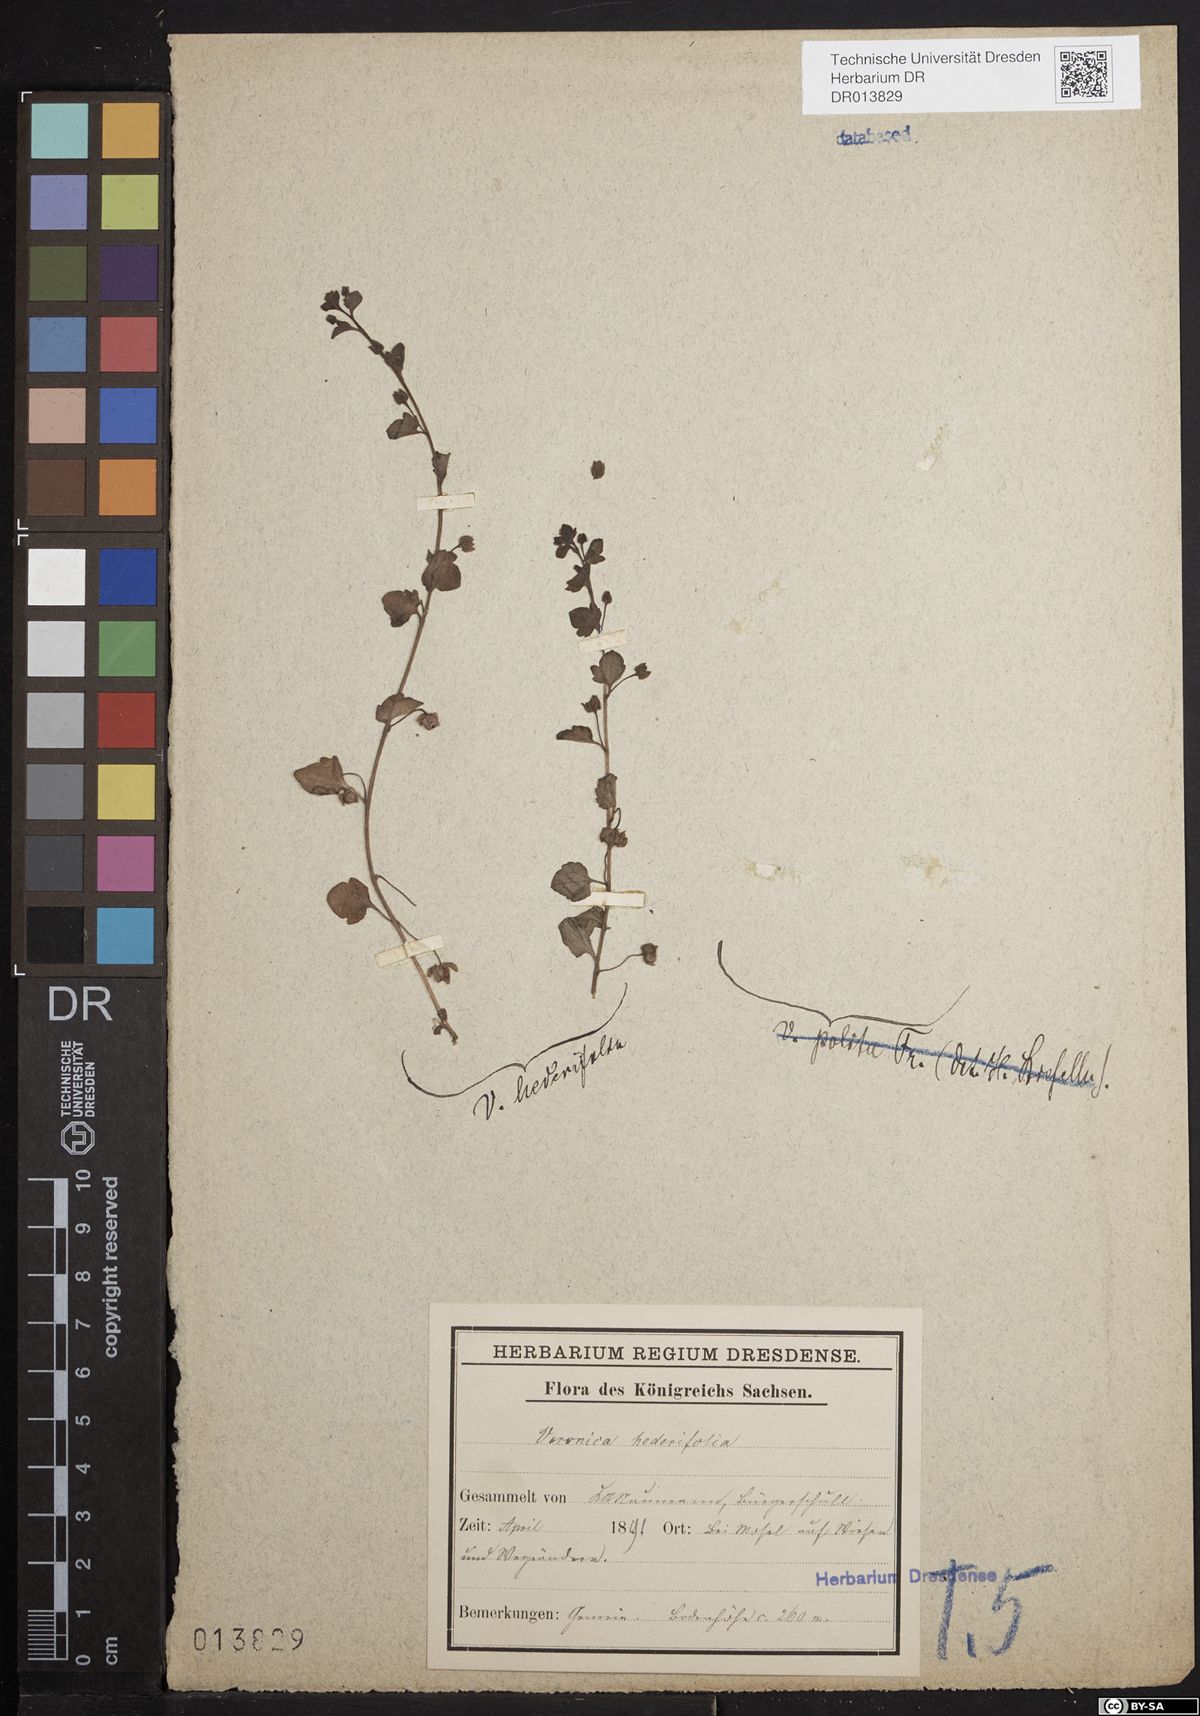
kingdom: Plantae
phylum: Tracheophyta
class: Magnoliopsida
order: Lamiales
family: Plantaginaceae
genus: Veronica
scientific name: Veronica hederifolia
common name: Ivy-leaved speedwell
